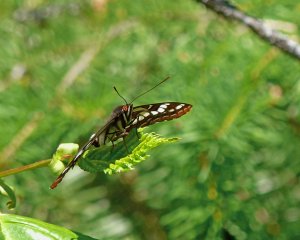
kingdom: Animalia
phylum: Arthropoda
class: Insecta
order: Lepidoptera
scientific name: Lepidoptera
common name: Butterflies
